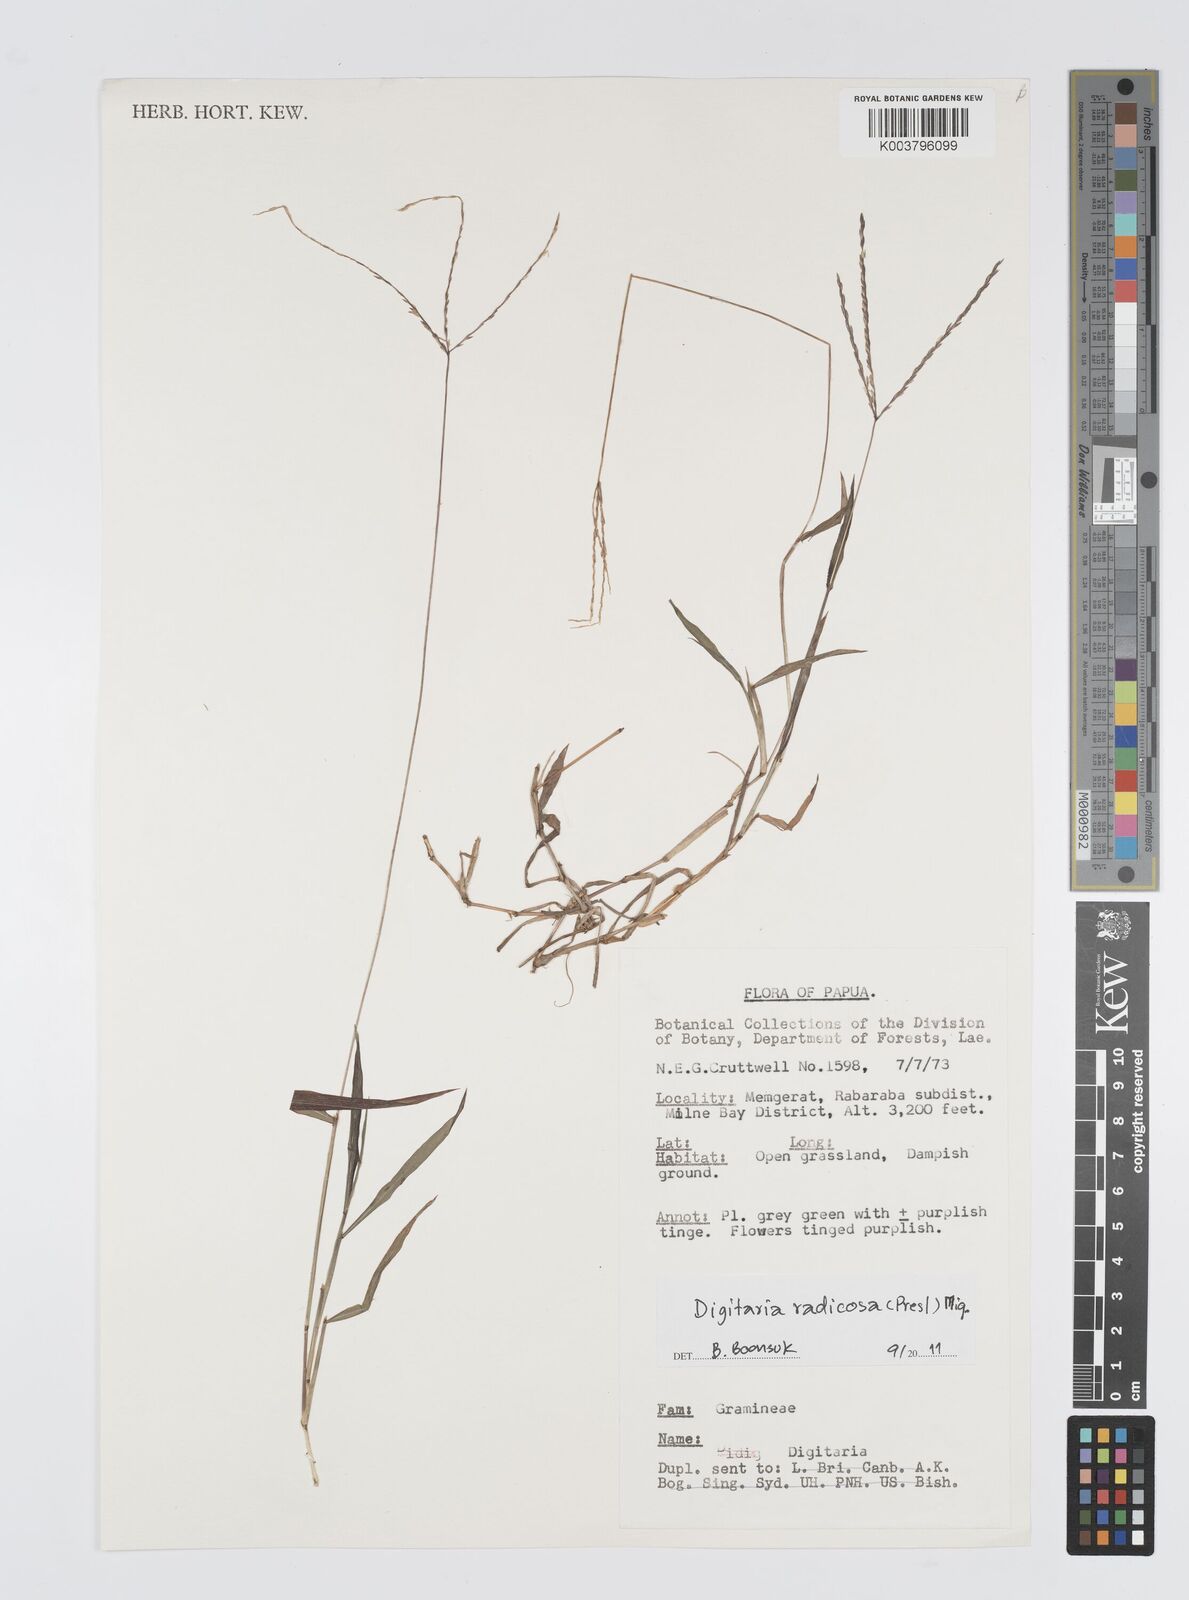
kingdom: Plantae
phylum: Tracheophyta
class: Liliopsida
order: Poales
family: Poaceae
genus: Digitaria
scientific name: Digitaria radicosa
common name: Trailing crabgrass
